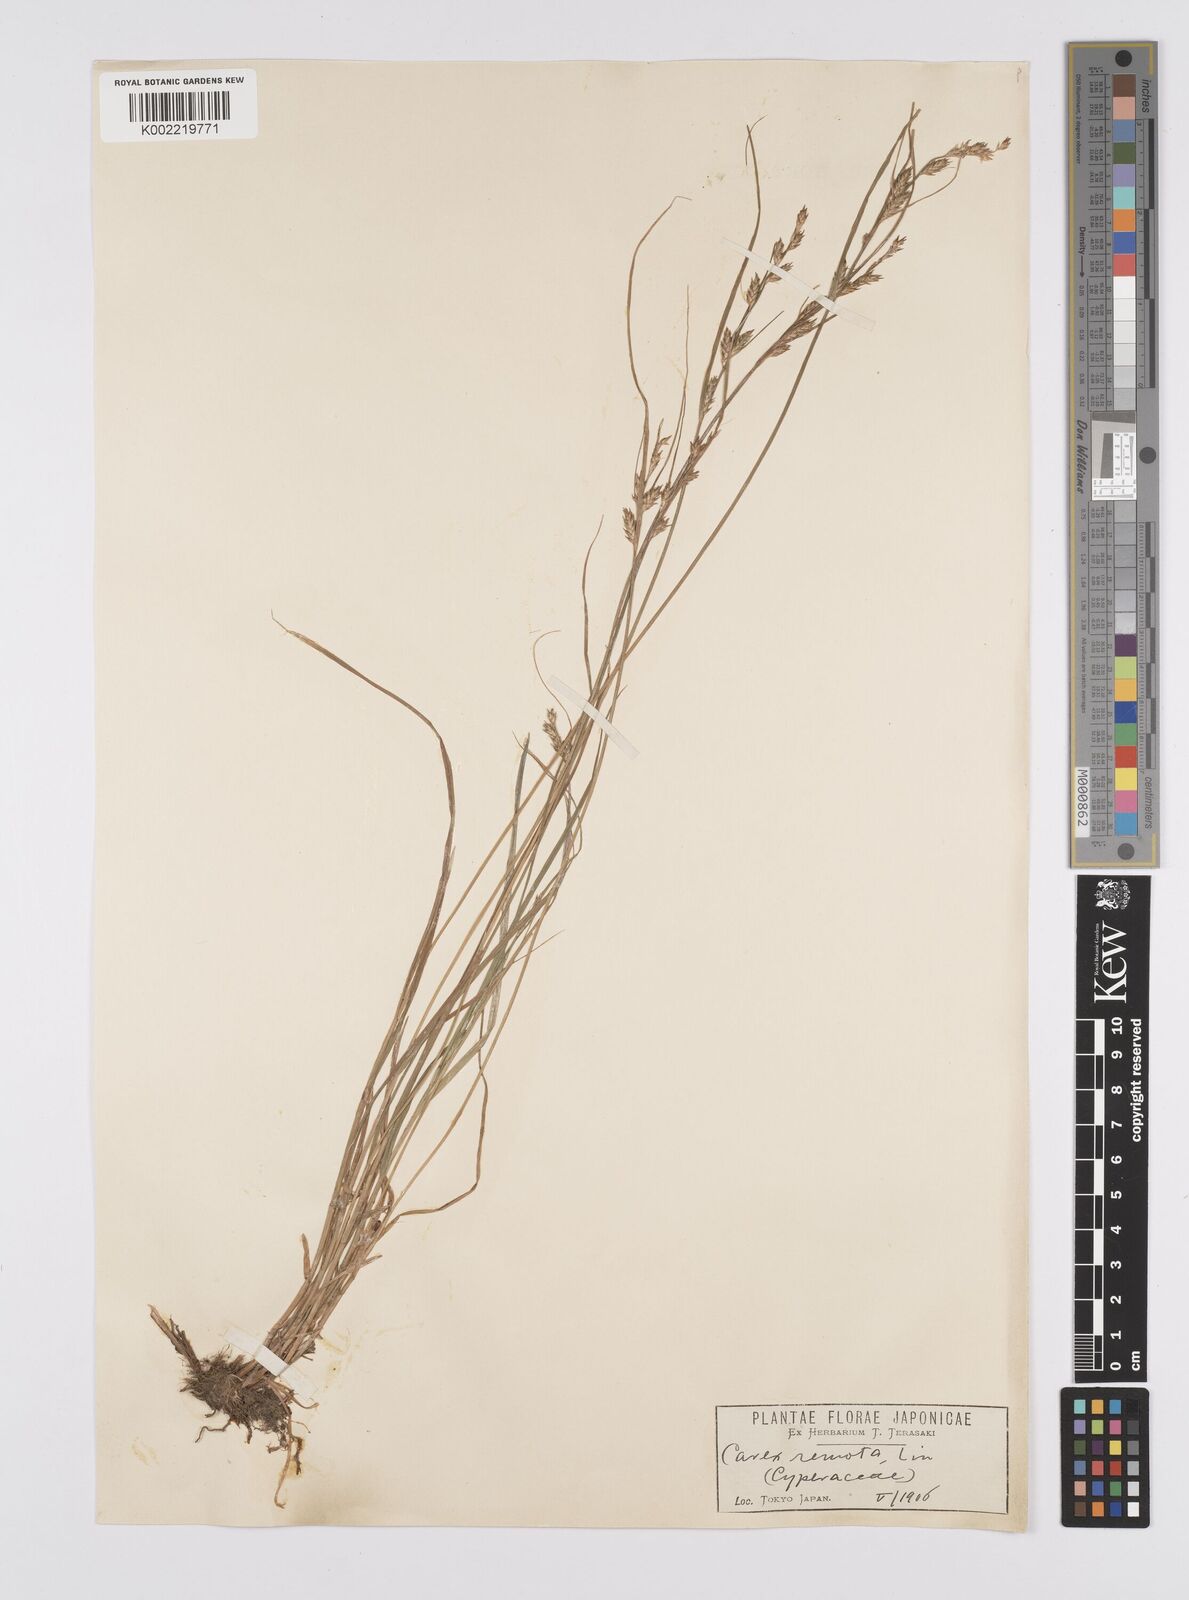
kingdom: Plantae
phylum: Tracheophyta
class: Liliopsida
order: Poales
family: Cyperaceae
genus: Carex
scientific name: Carex remota
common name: Remote sedge
